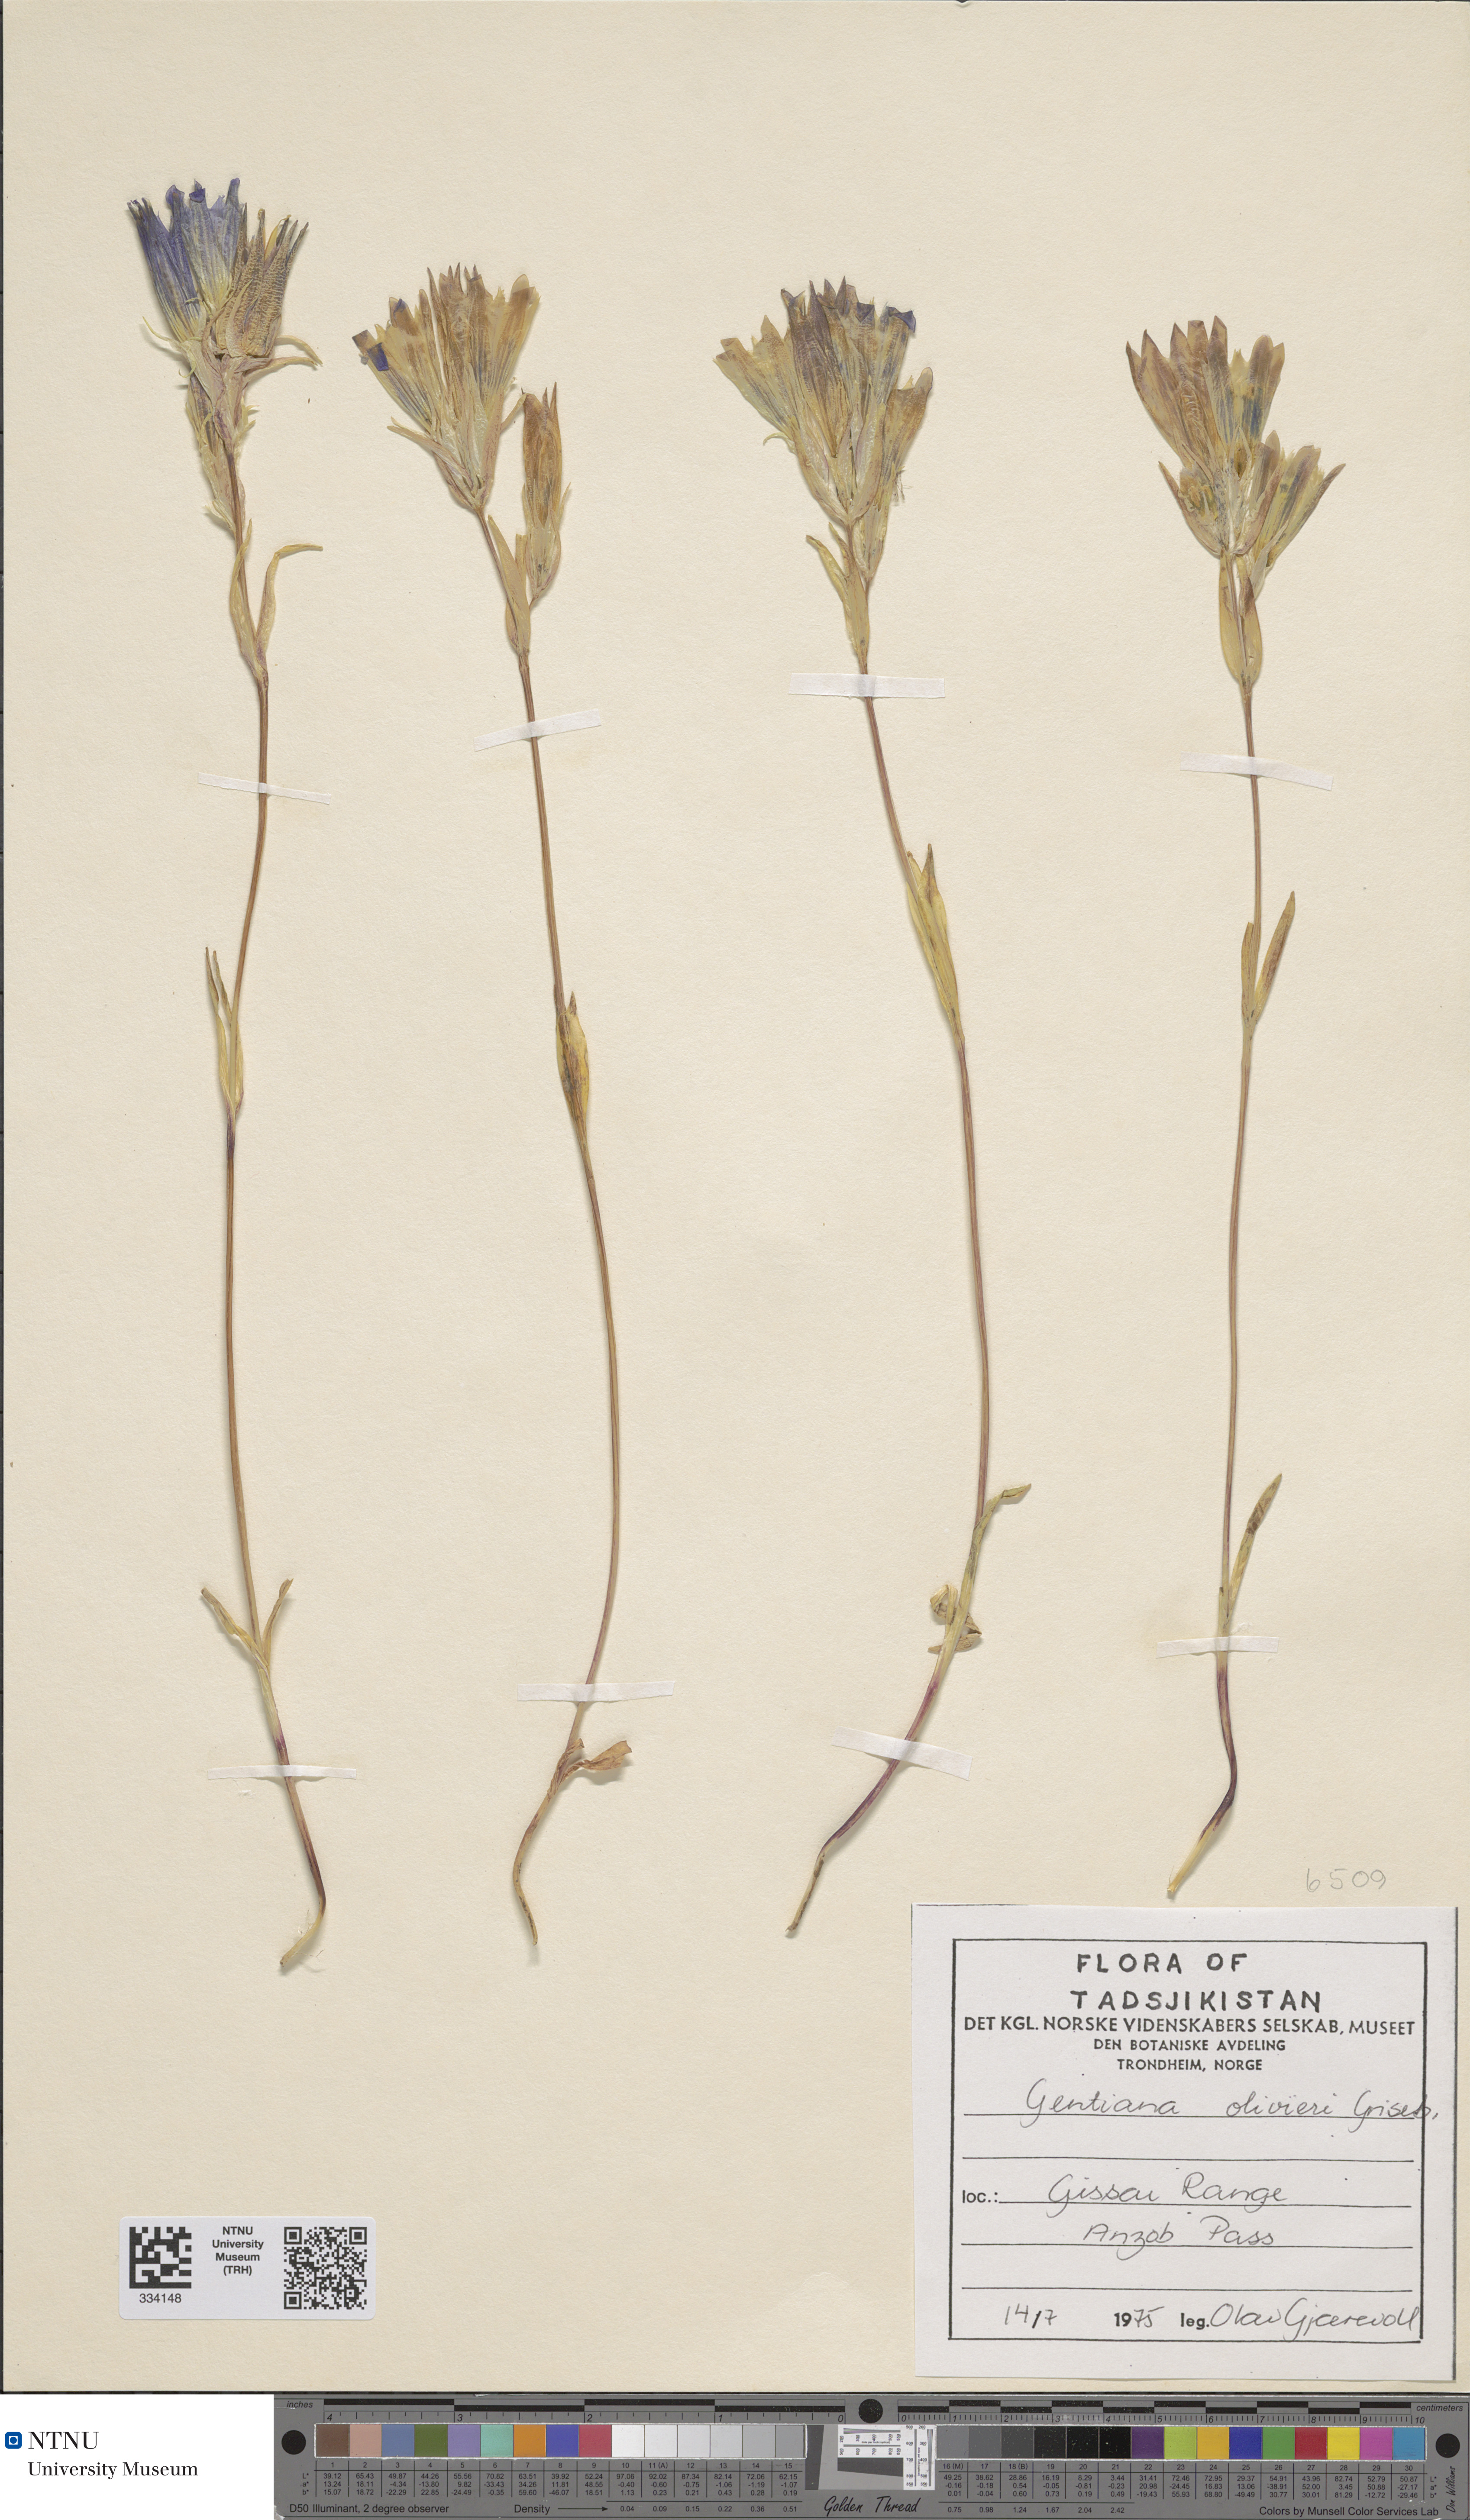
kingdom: Plantae
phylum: Tracheophyta
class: Magnoliopsida
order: Gentianales
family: Gentianaceae
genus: Gentiana
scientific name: Gentiana olivieri
